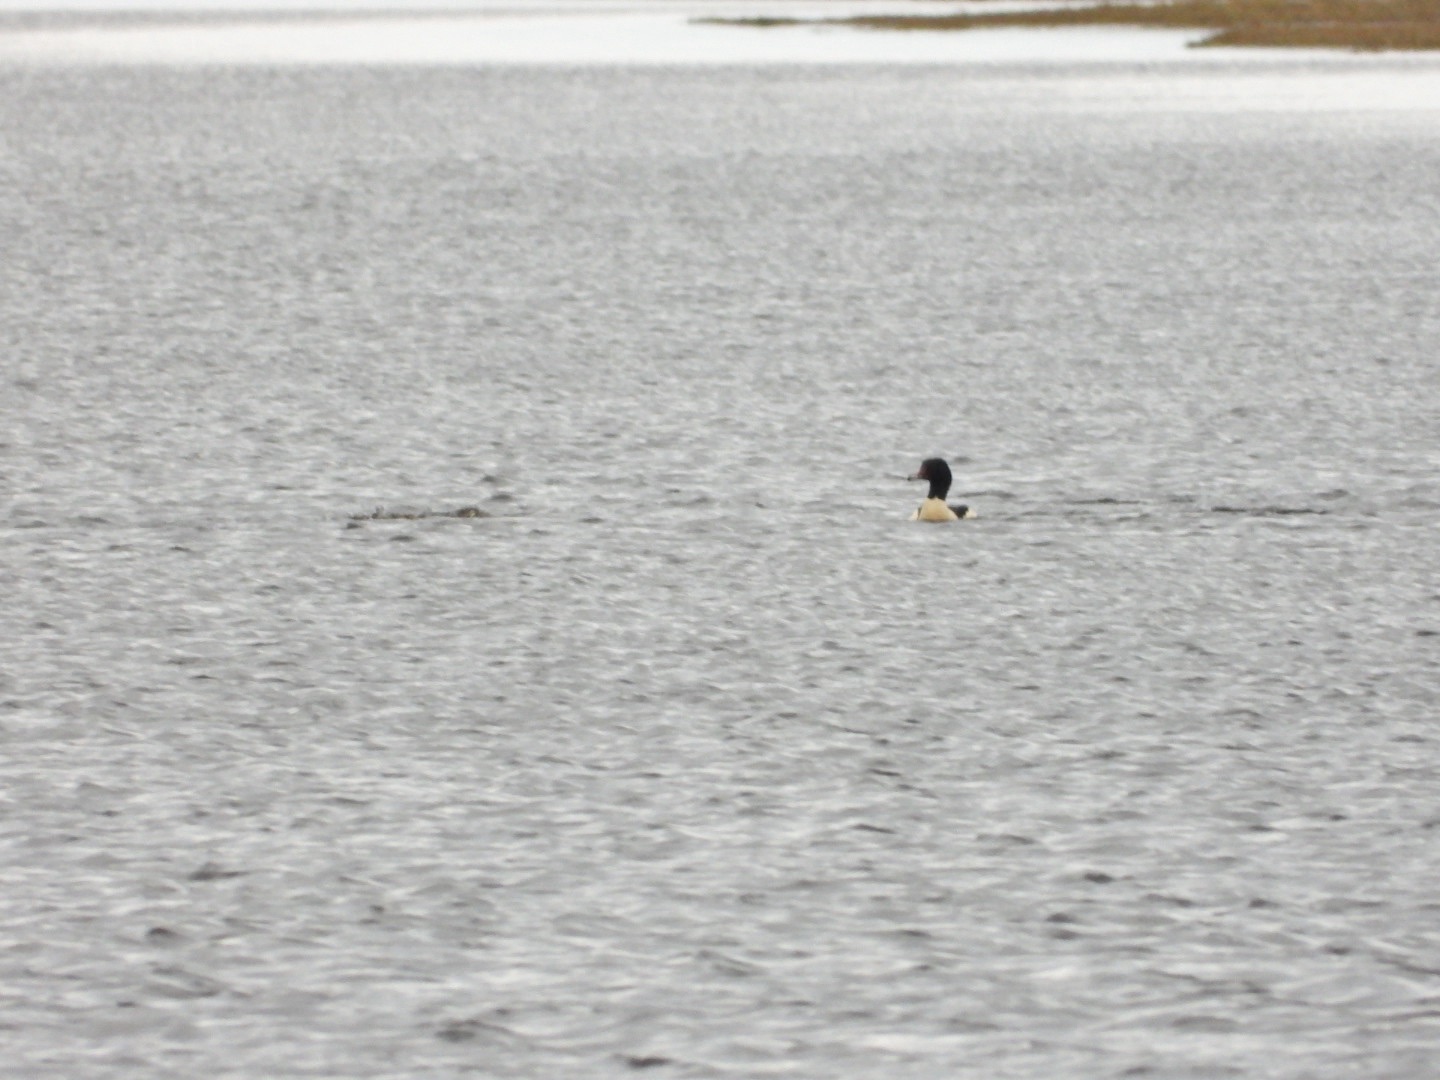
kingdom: Animalia
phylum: Chordata
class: Aves
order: Anseriformes
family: Anatidae
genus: Mergus
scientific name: Mergus merganser
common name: Stor skallesluger
